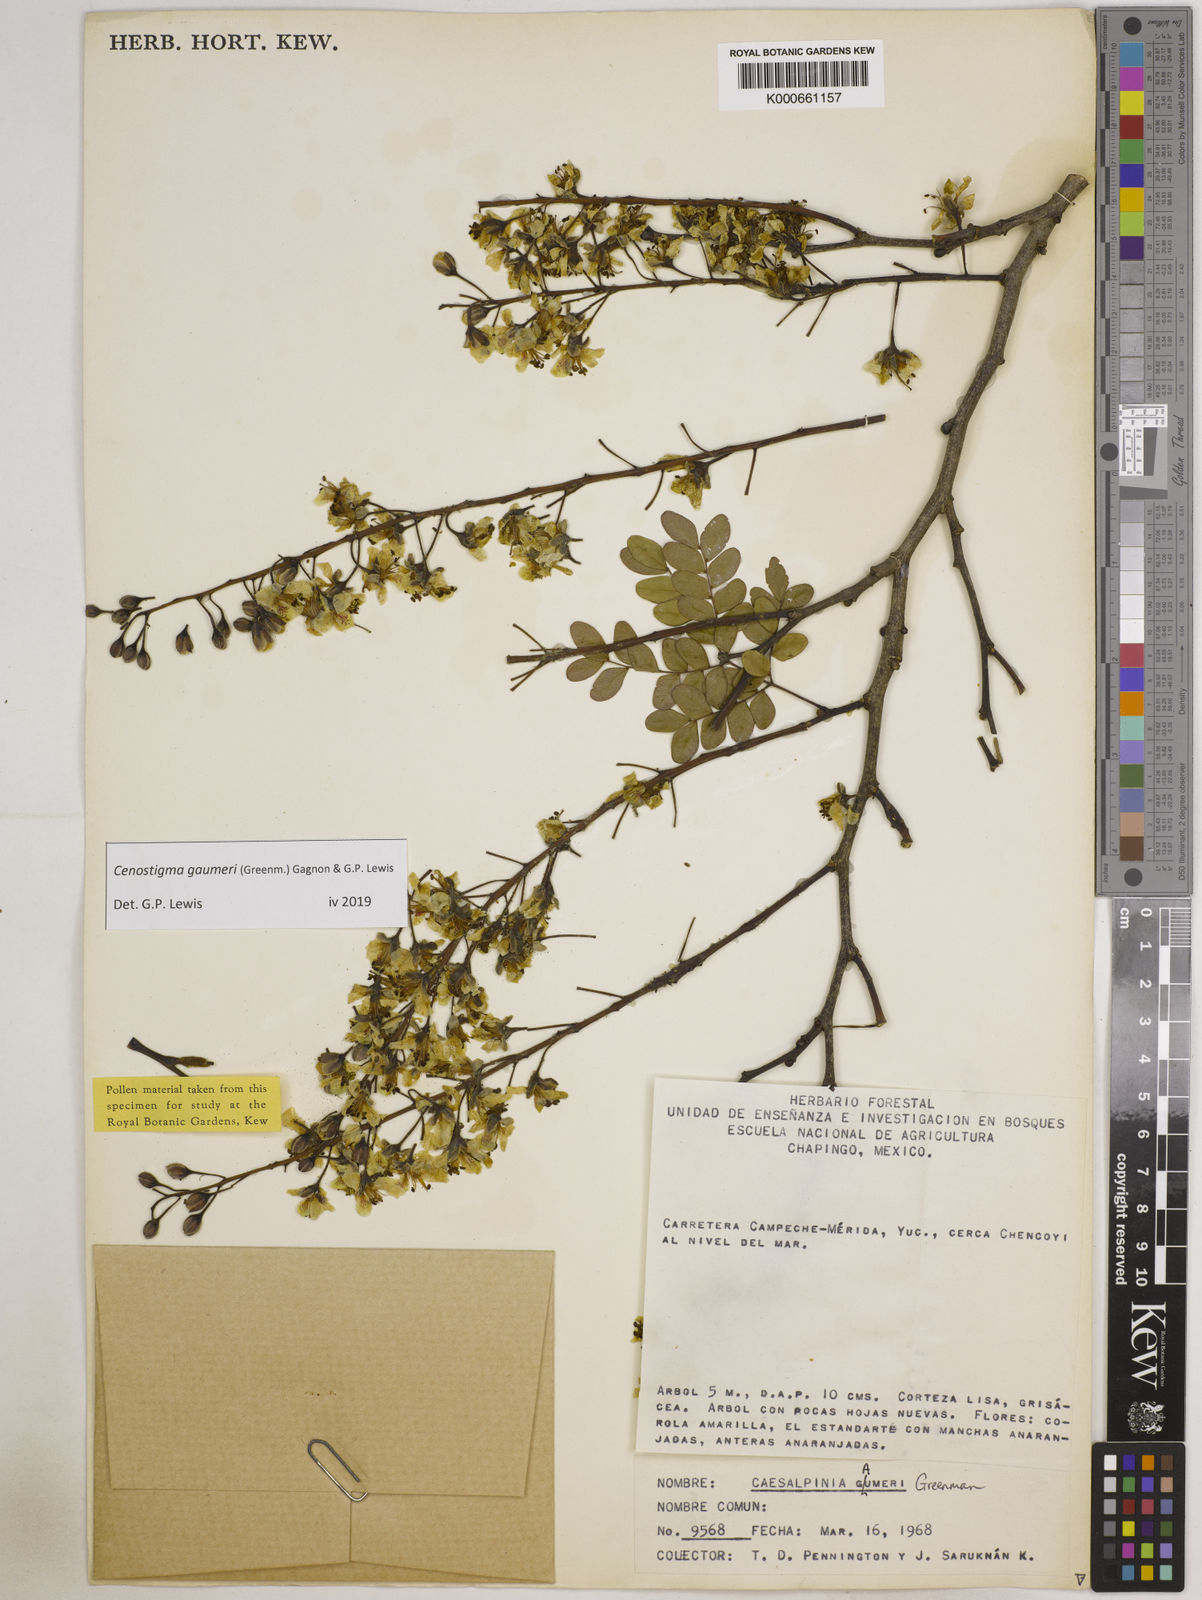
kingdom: Plantae
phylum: Tracheophyta
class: Magnoliopsida
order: Fabales
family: Fabaceae
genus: Cenostigma
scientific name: Cenostigma gaumeri
